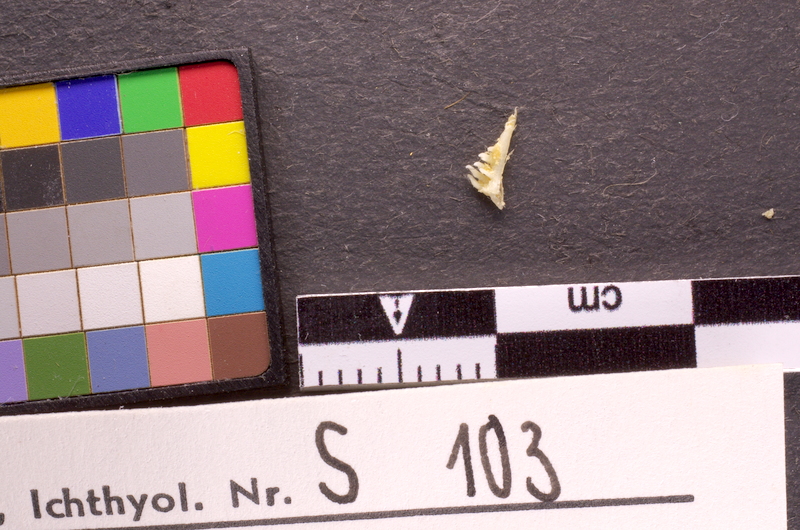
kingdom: Animalia
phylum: Chordata
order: Cypriniformes
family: Cyprinidae
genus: Labeo
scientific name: Labeo mesops
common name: African carp
